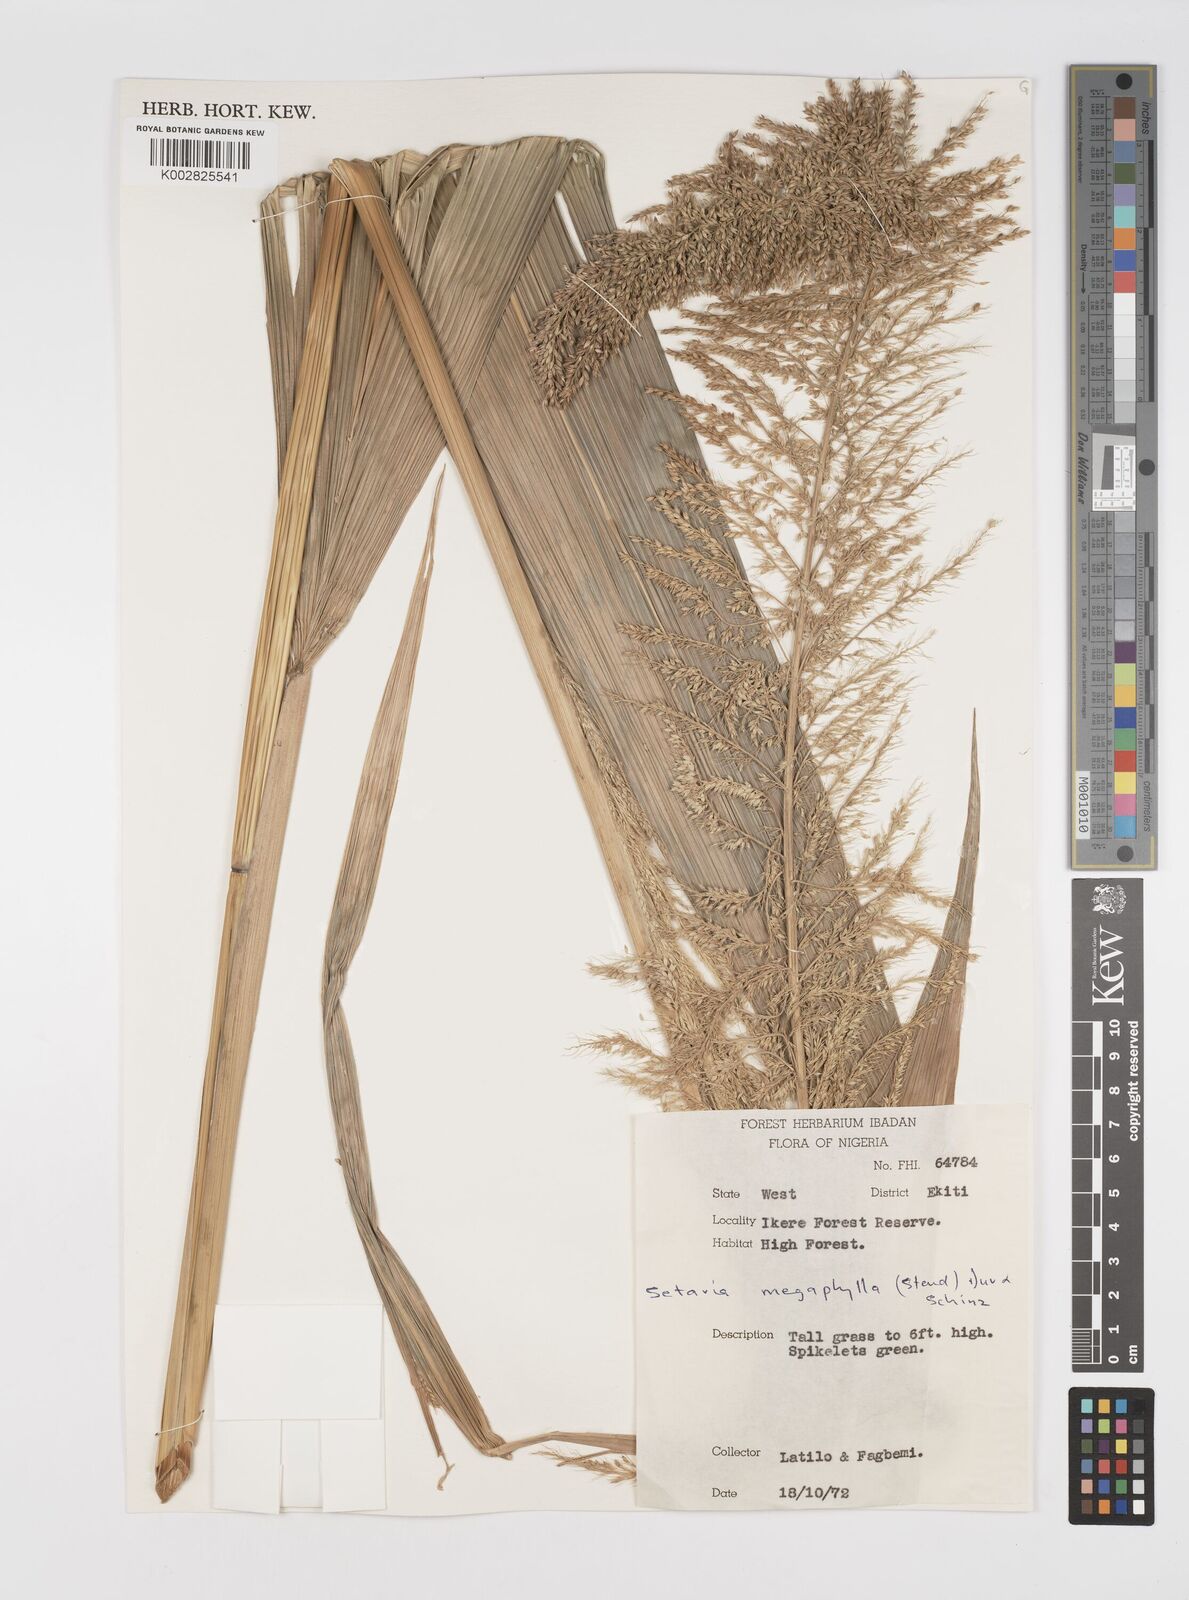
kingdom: Plantae
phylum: Tracheophyta
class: Liliopsida
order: Poales
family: Poaceae
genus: Setaria
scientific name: Setaria megaphylla
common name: Bigleaf bristlegrass
